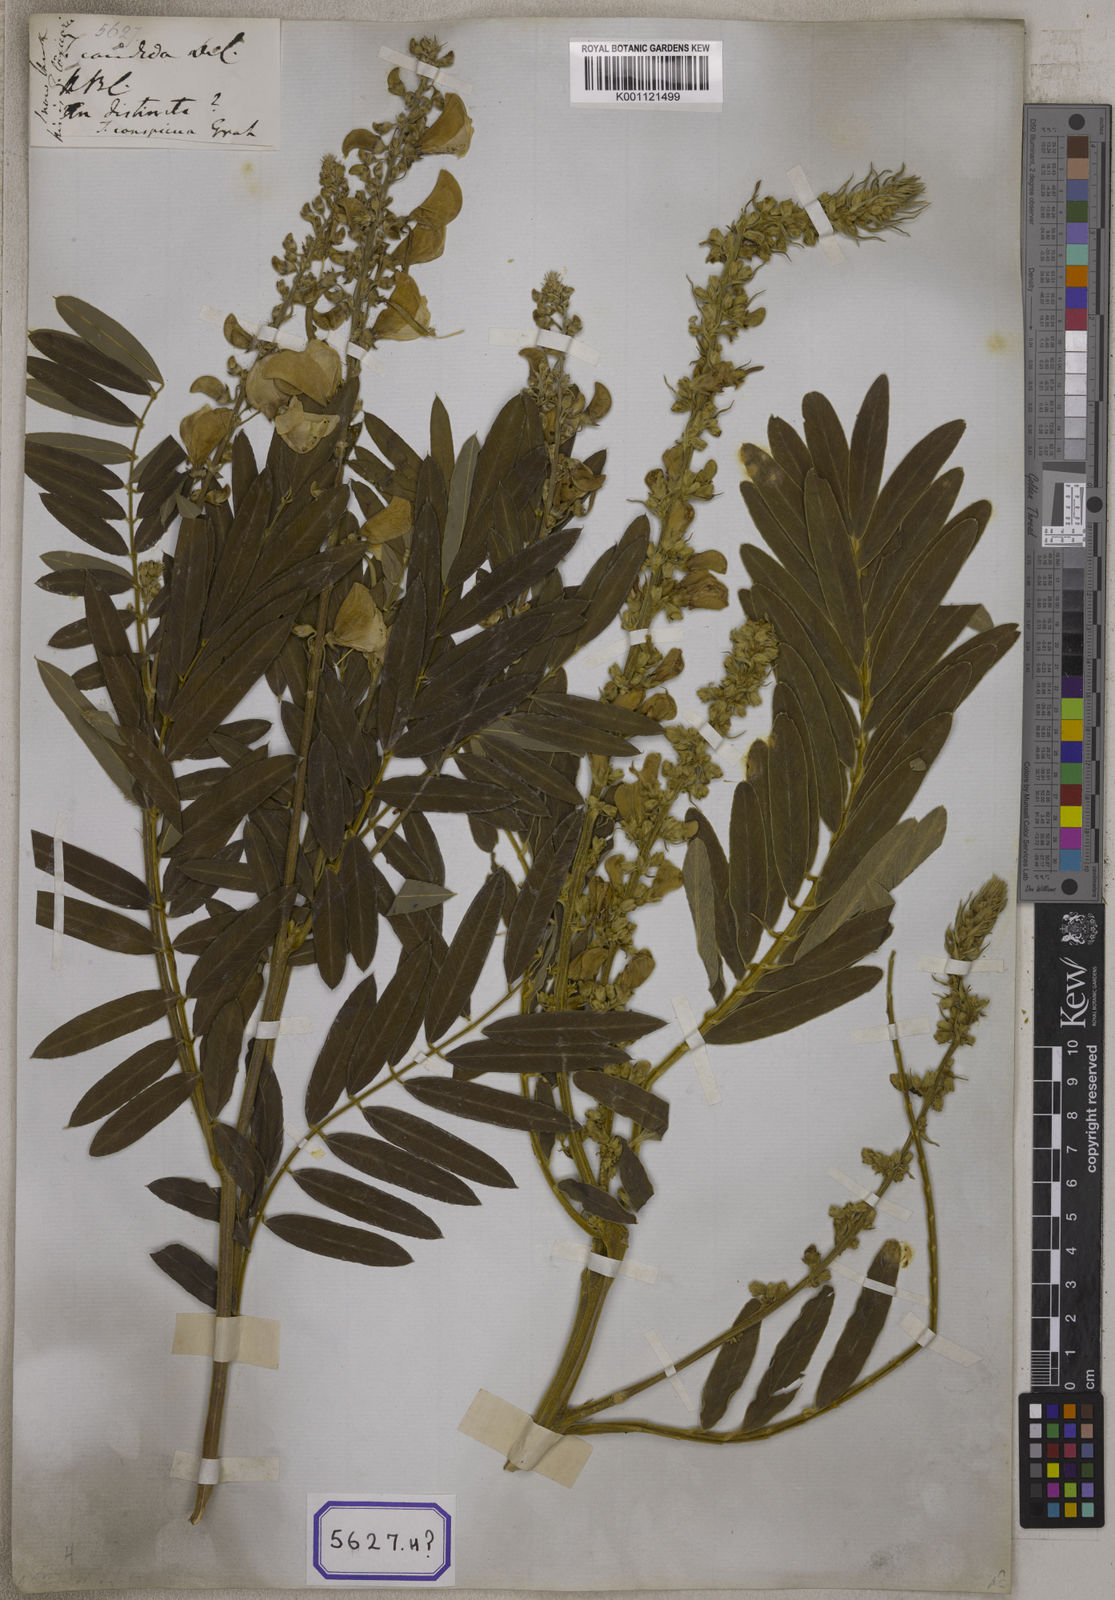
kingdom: Plantae
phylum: Tracheophyta
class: Magnoliopsida
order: Fabales
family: Fabaceae
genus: Tephrosia
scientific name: Tephrosia candida
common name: White tephrosia
